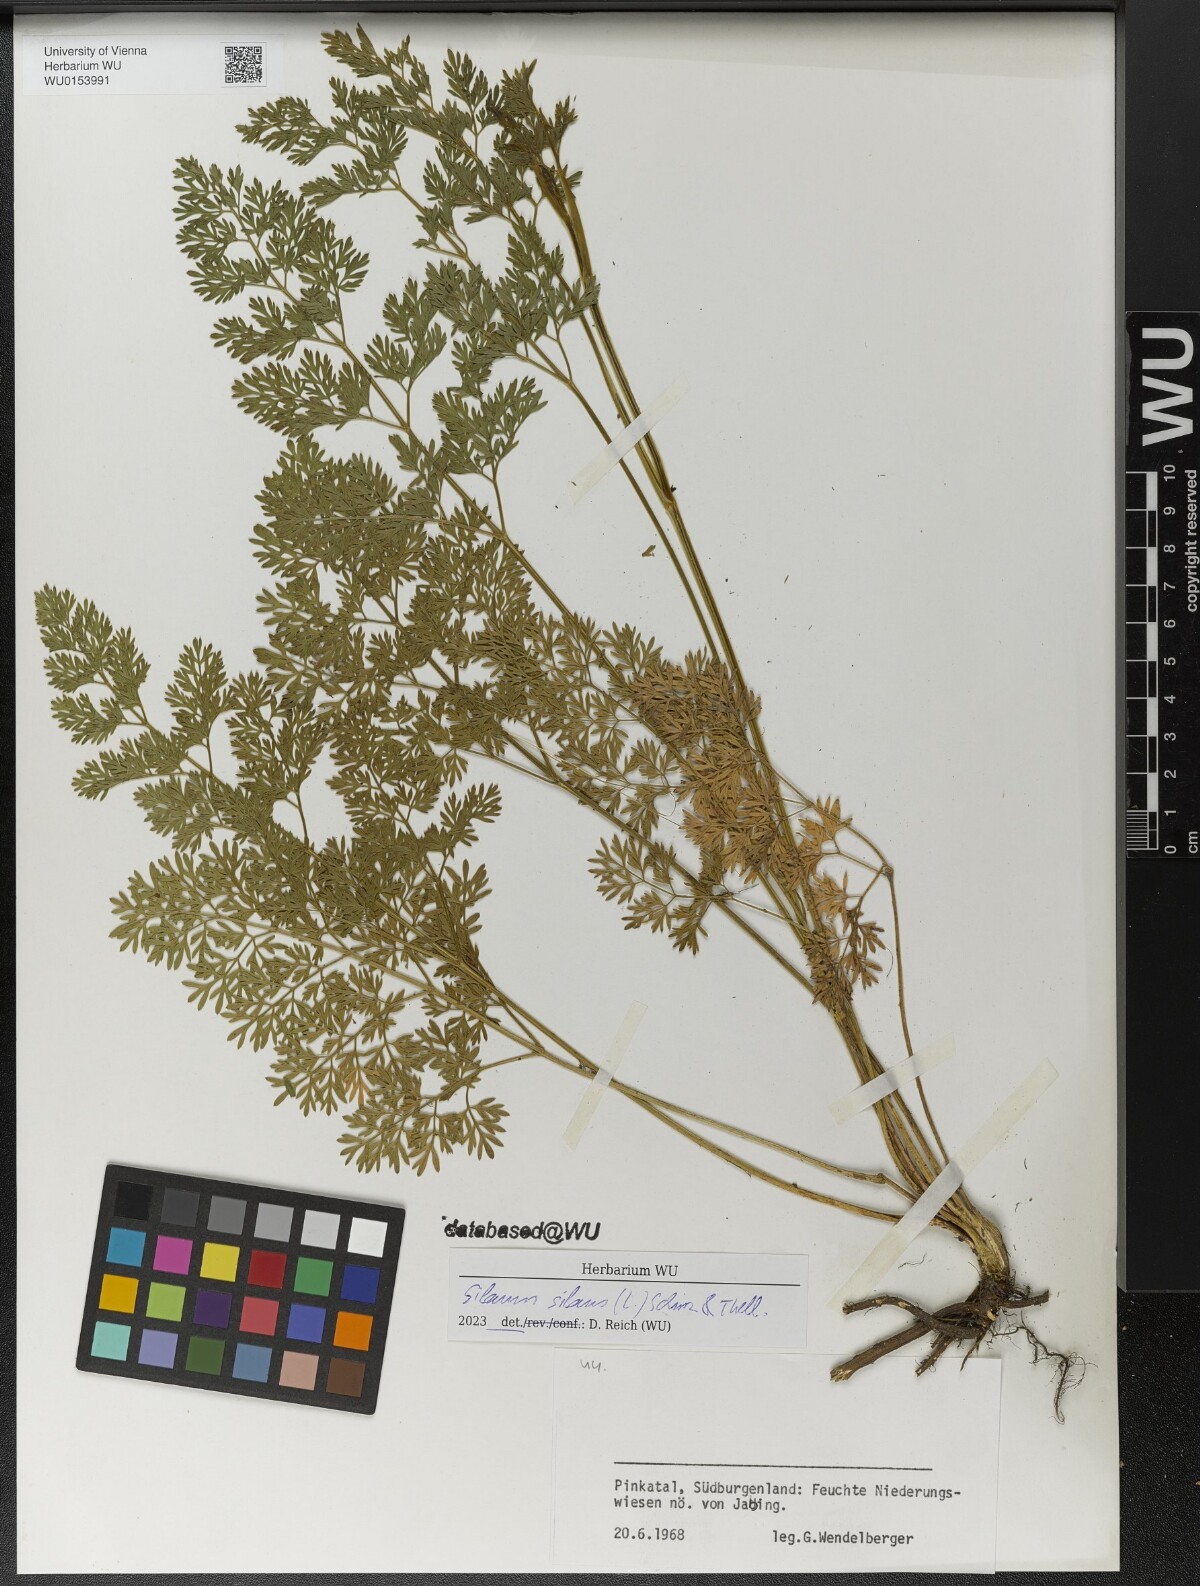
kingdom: Plantae
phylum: Tracheophyta
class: Magnoliopsida
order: Apiales
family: Apiaceae
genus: Silaum
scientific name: Silaum silaus
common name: Pepper-saxifrage
